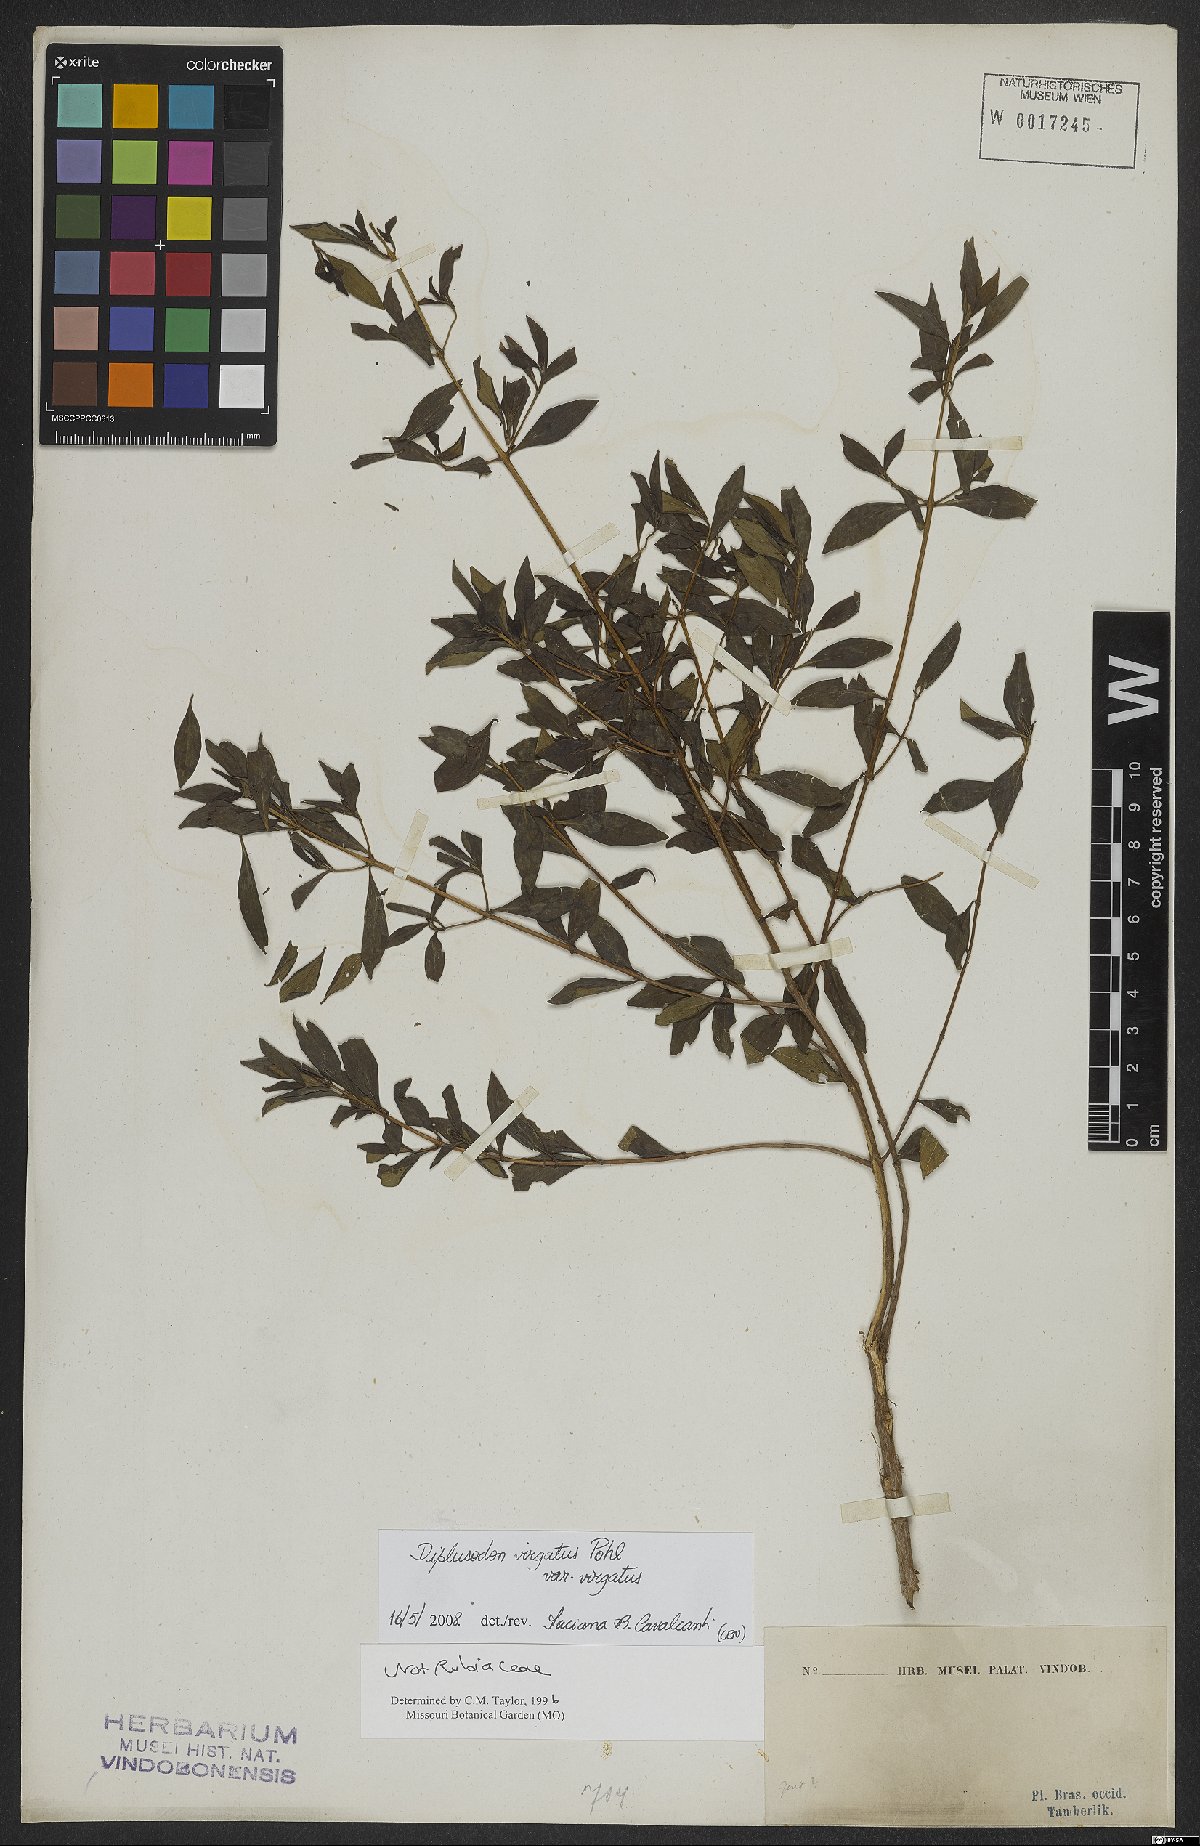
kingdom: Plantae
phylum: Tracheophyta
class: Magnoliopsida
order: Myrtales
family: Lythraceae
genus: Diplusodon
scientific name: Diplusodon virgatus
